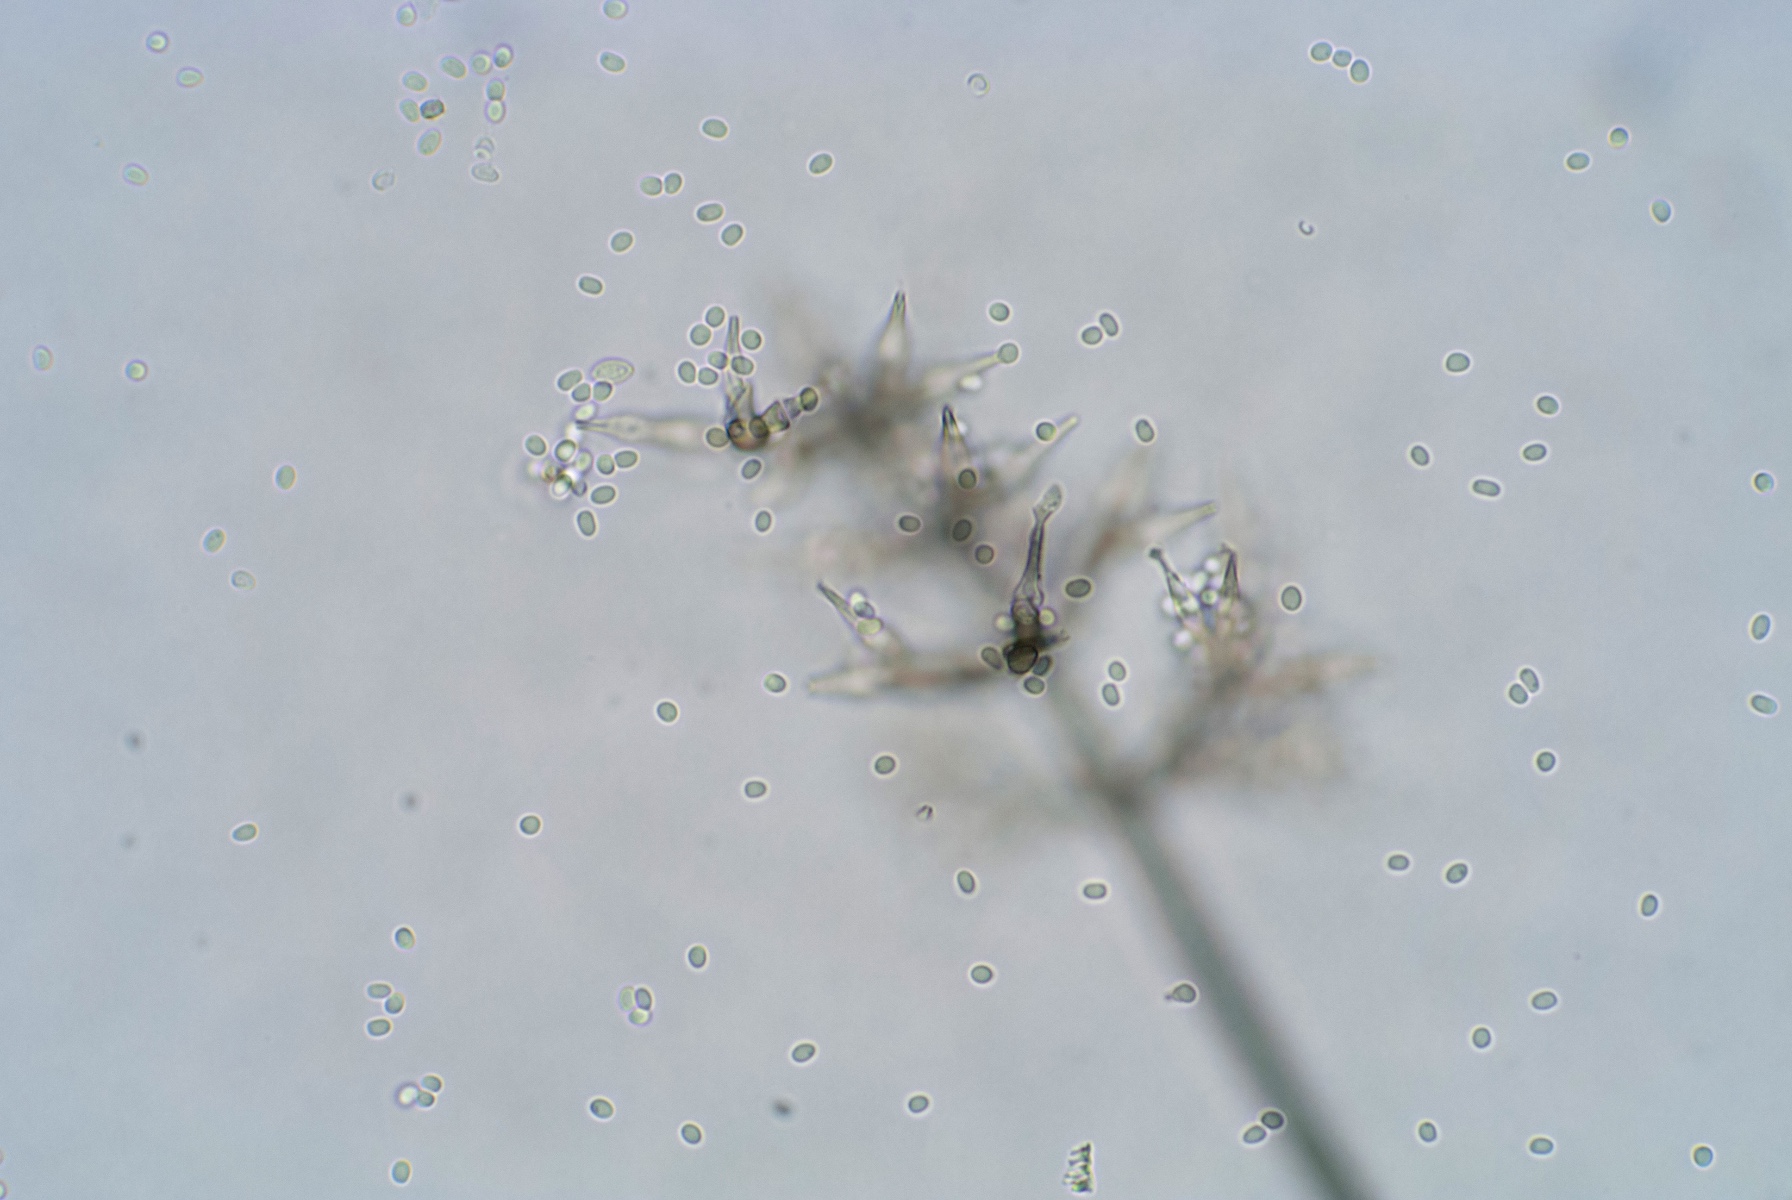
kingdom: Fungi
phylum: Ascomycota
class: Sordariomycetes
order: Chaetosphaeriales
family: Chaetosphaeriaceae
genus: Phaeostalagmus
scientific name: Phaeostalagmus cyclosporus
